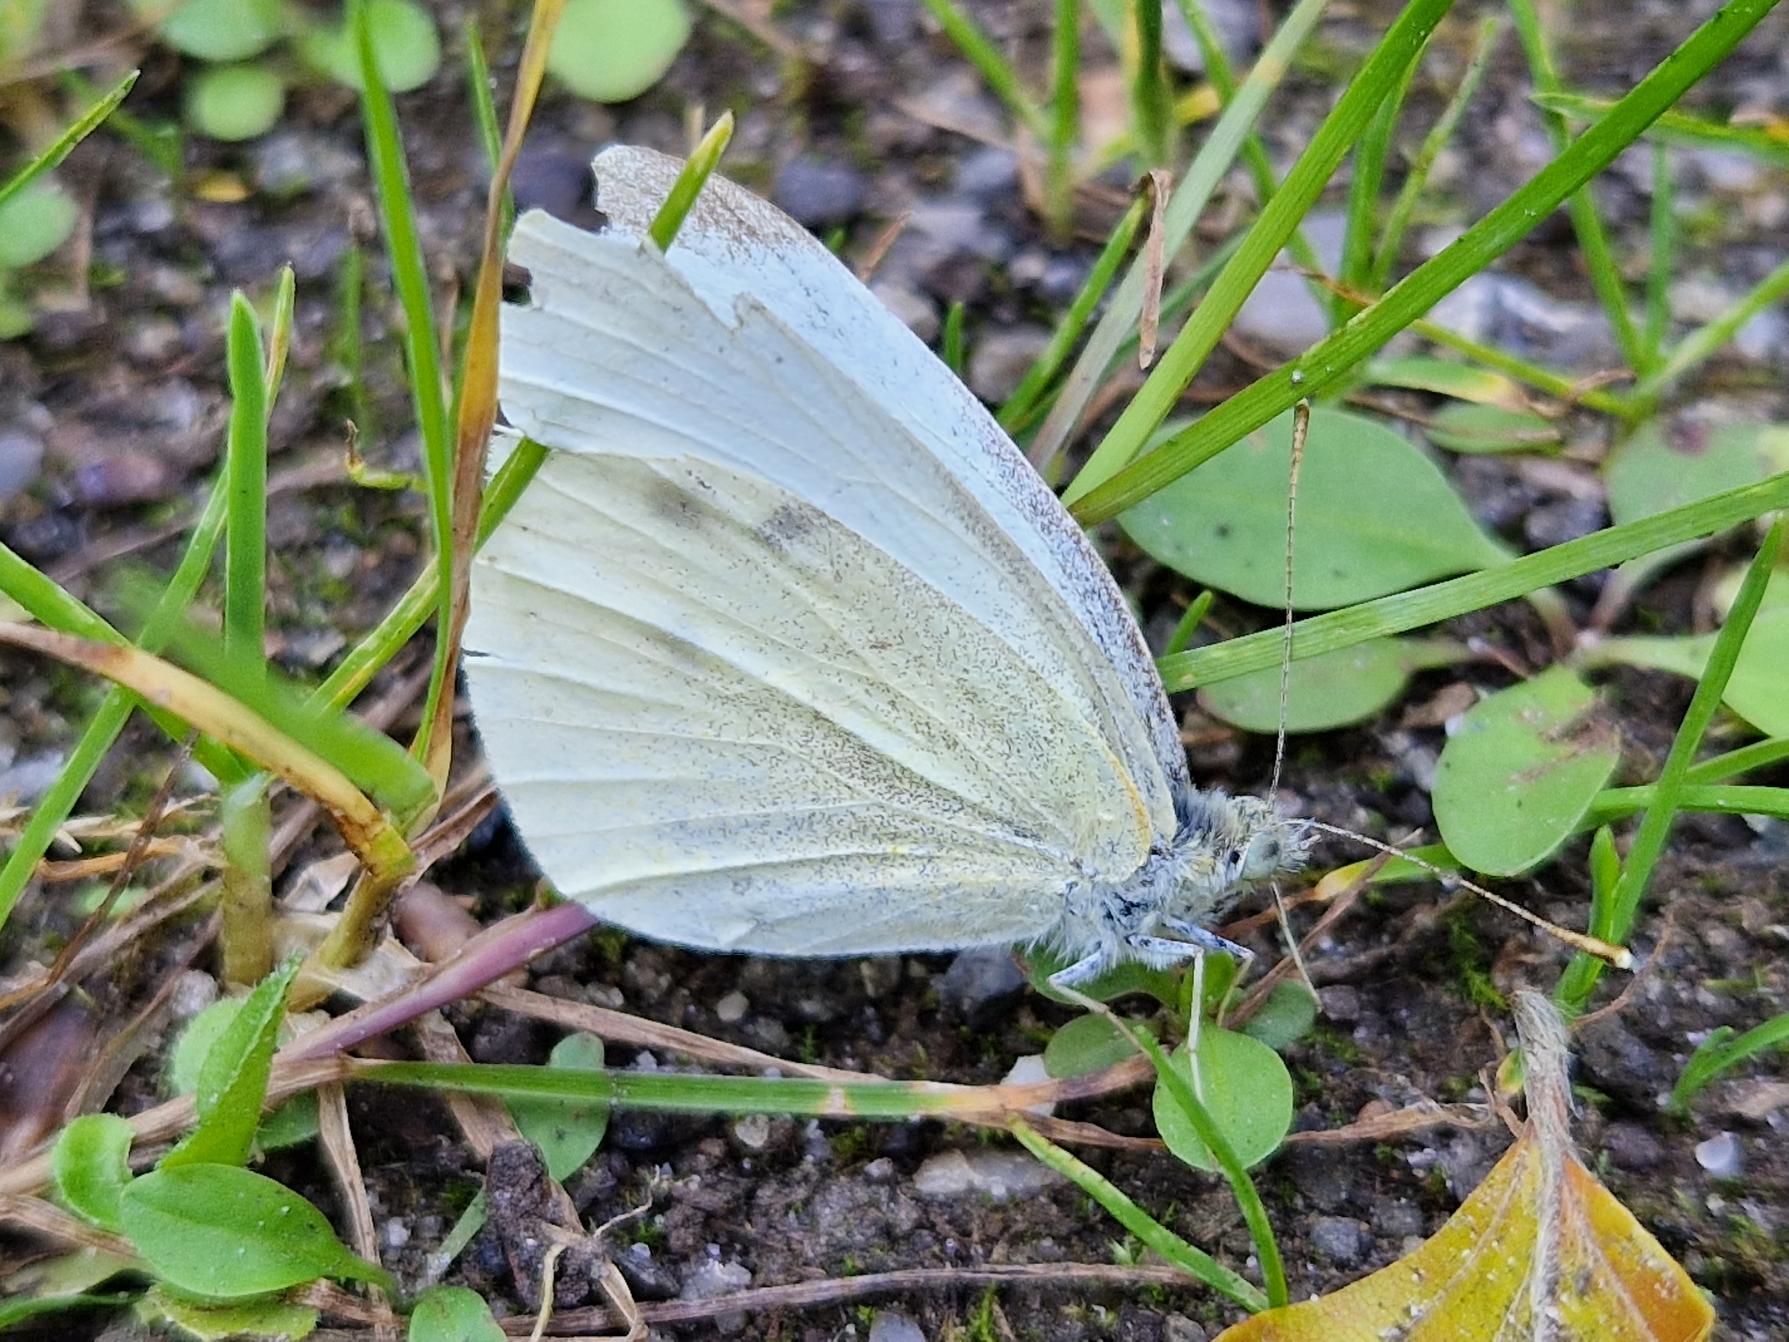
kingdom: Animalia
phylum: Arthropoda
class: Insecta
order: Lepidoptera
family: Pieridae
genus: Pieris
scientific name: Pieris rapae
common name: Lille kålsommerfugl
